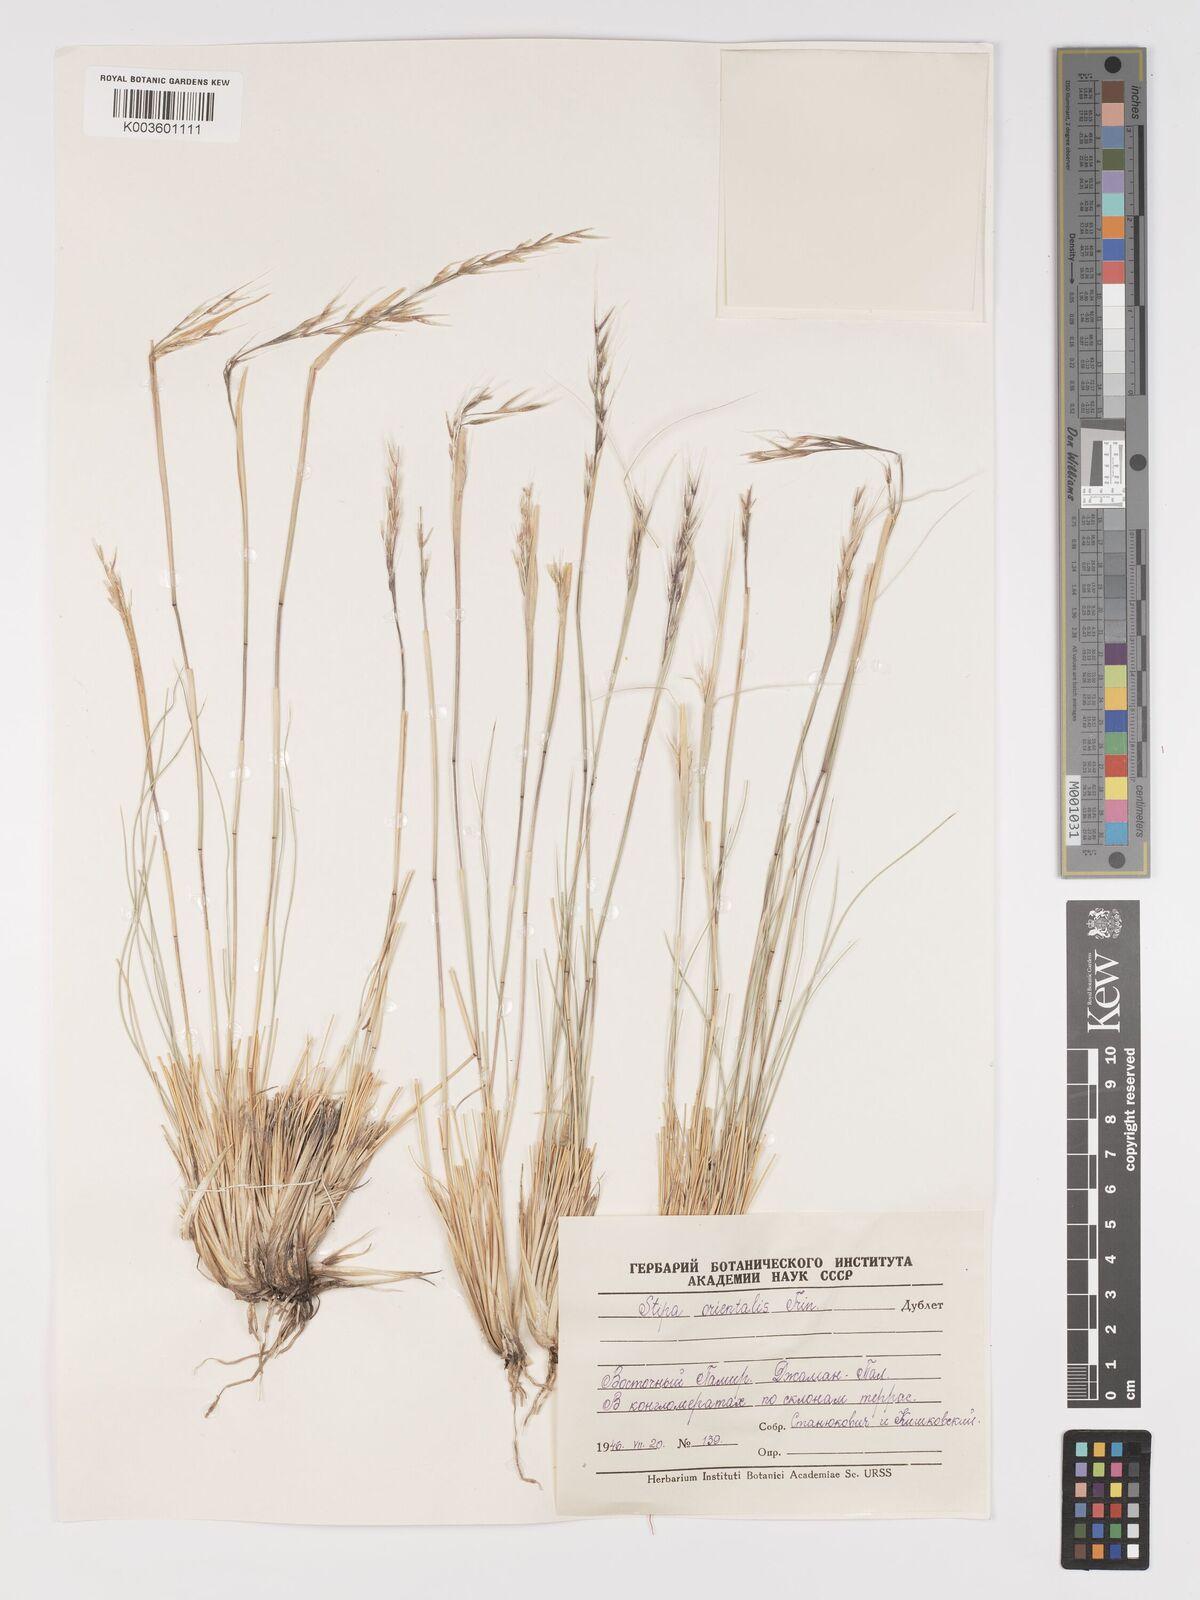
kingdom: Plantae
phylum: Tracheophyta
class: Liliopsida
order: Poales
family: Poaceae
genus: Stipa
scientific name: Stipa orientalis
